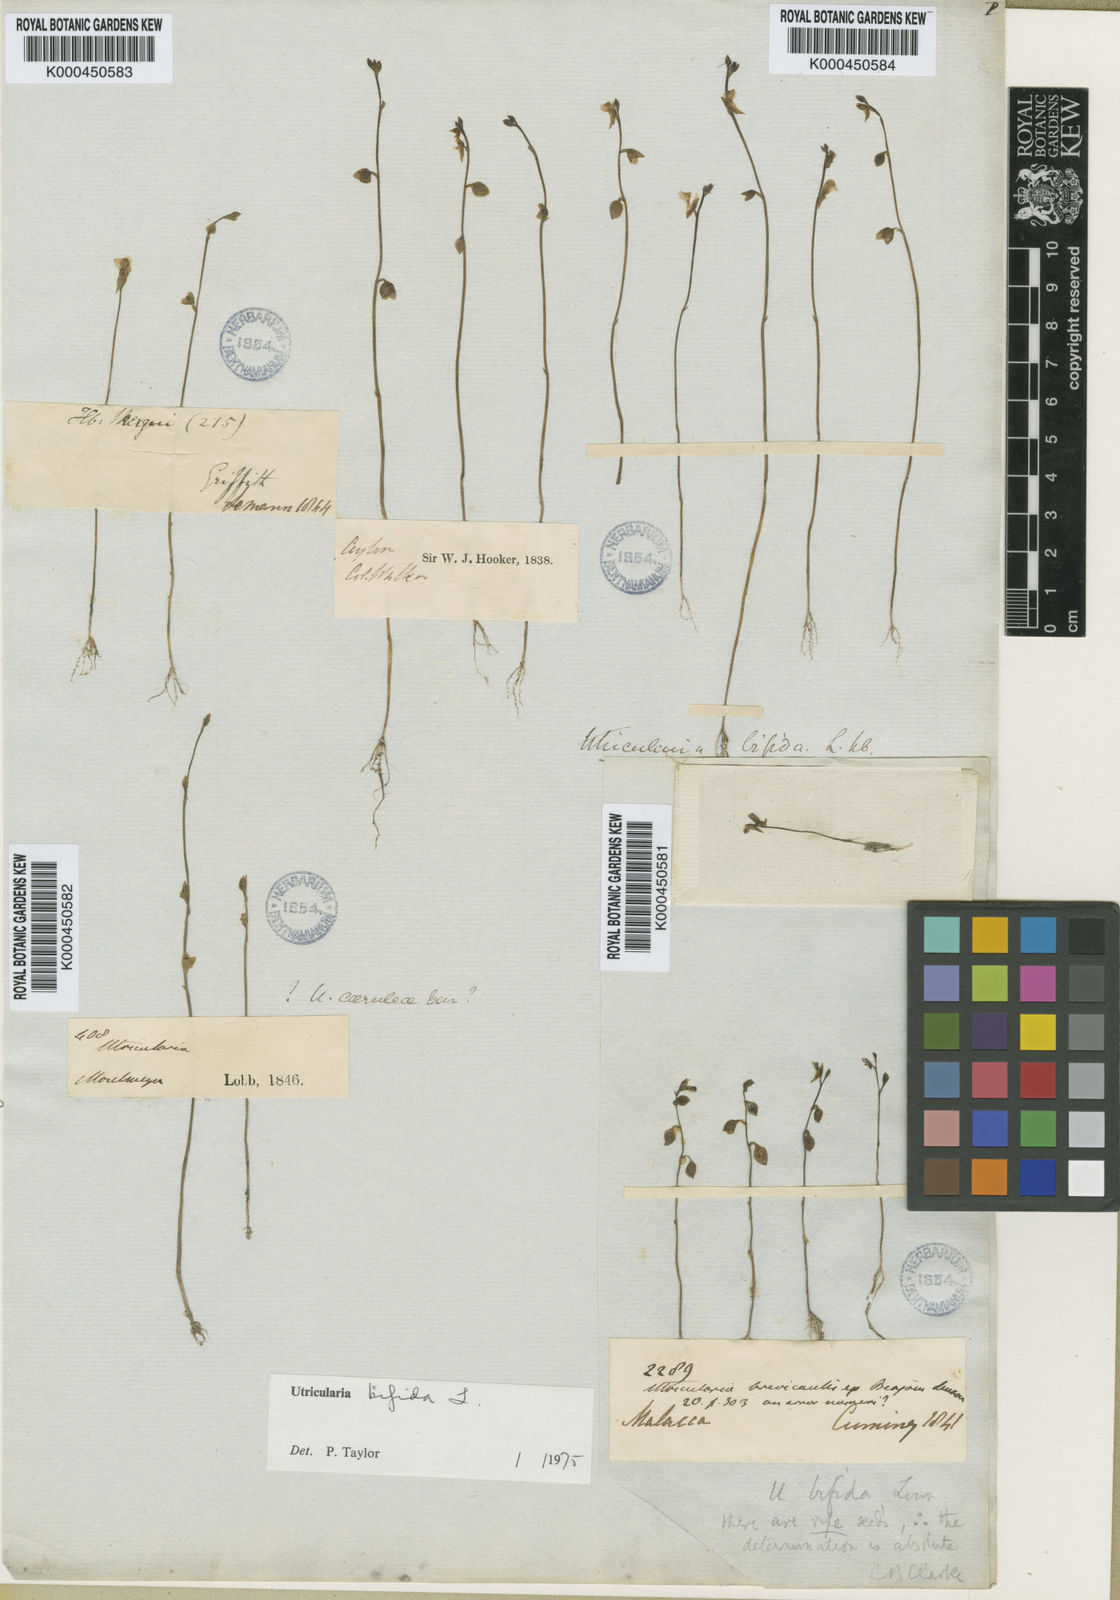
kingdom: Plantae
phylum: Tracheophyta
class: Magnoliopsida
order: Lamiales
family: Lentibulariaceae
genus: Utricularia
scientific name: Utricularia bifida
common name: Bifid bladderwort
